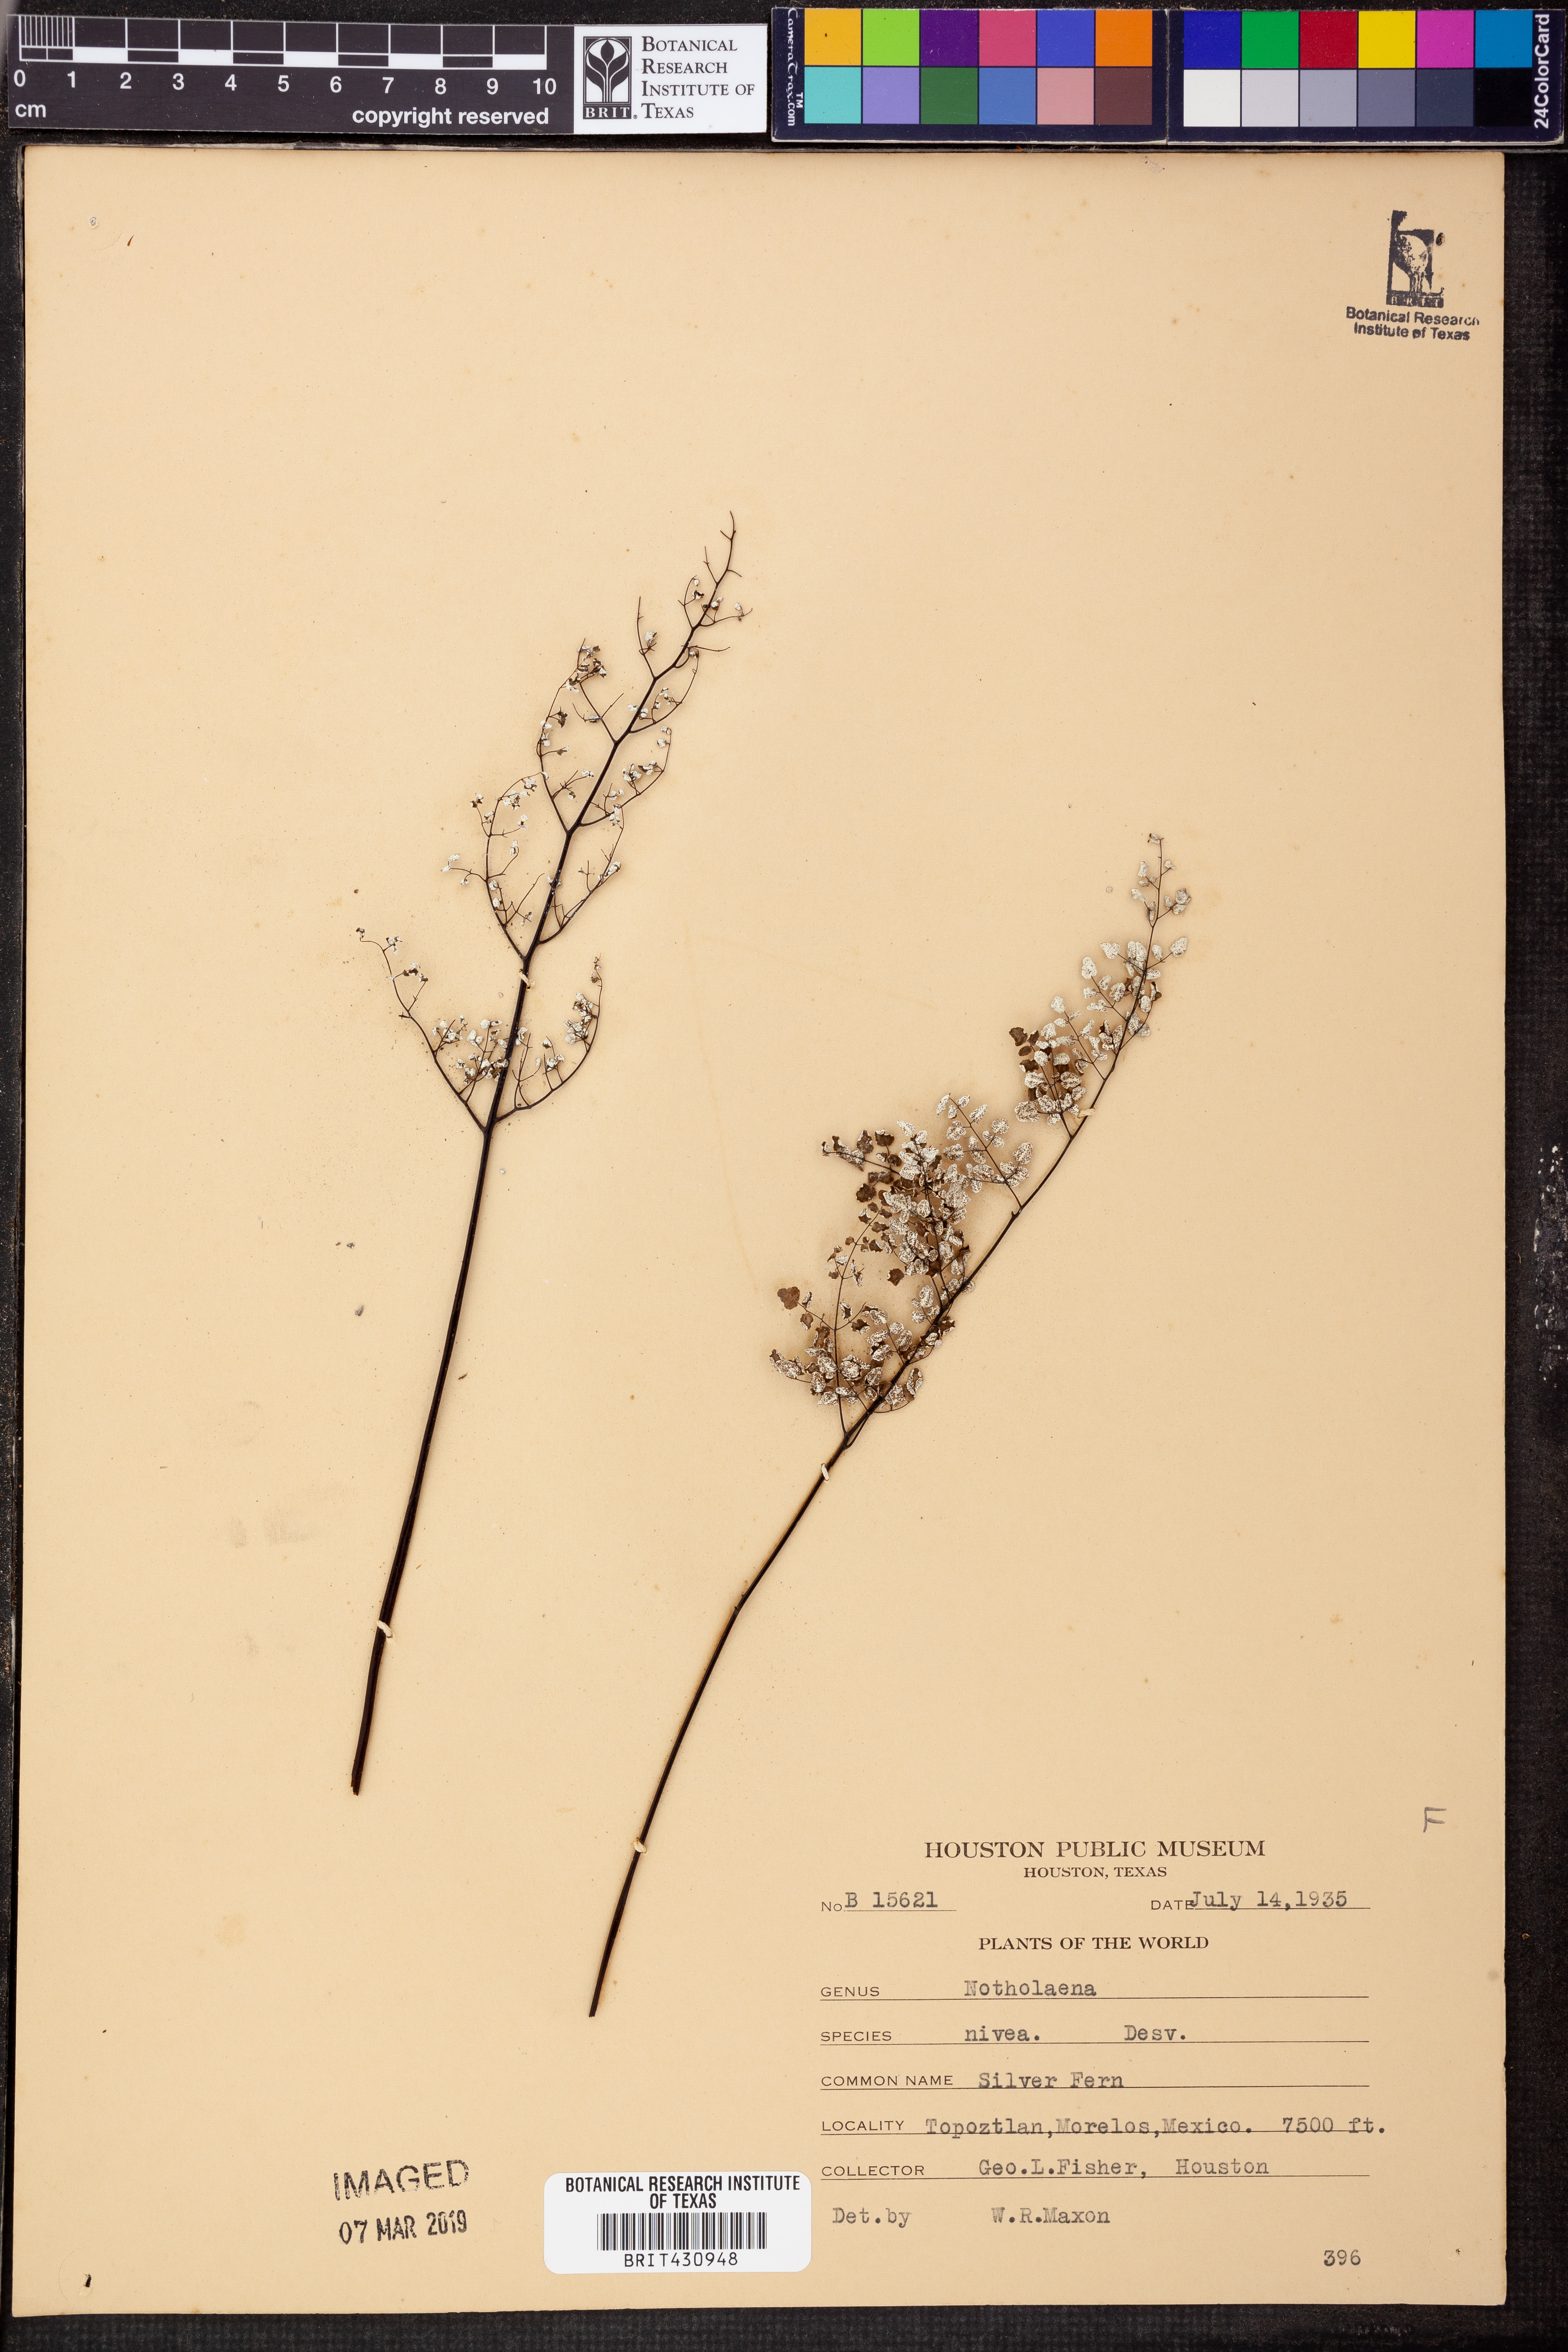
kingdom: Plantae
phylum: Tracheophyta
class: Polypodiopsida
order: Polypodiales
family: Pteridaceae
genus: Argyrochosma
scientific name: Argyrochosma nivea
